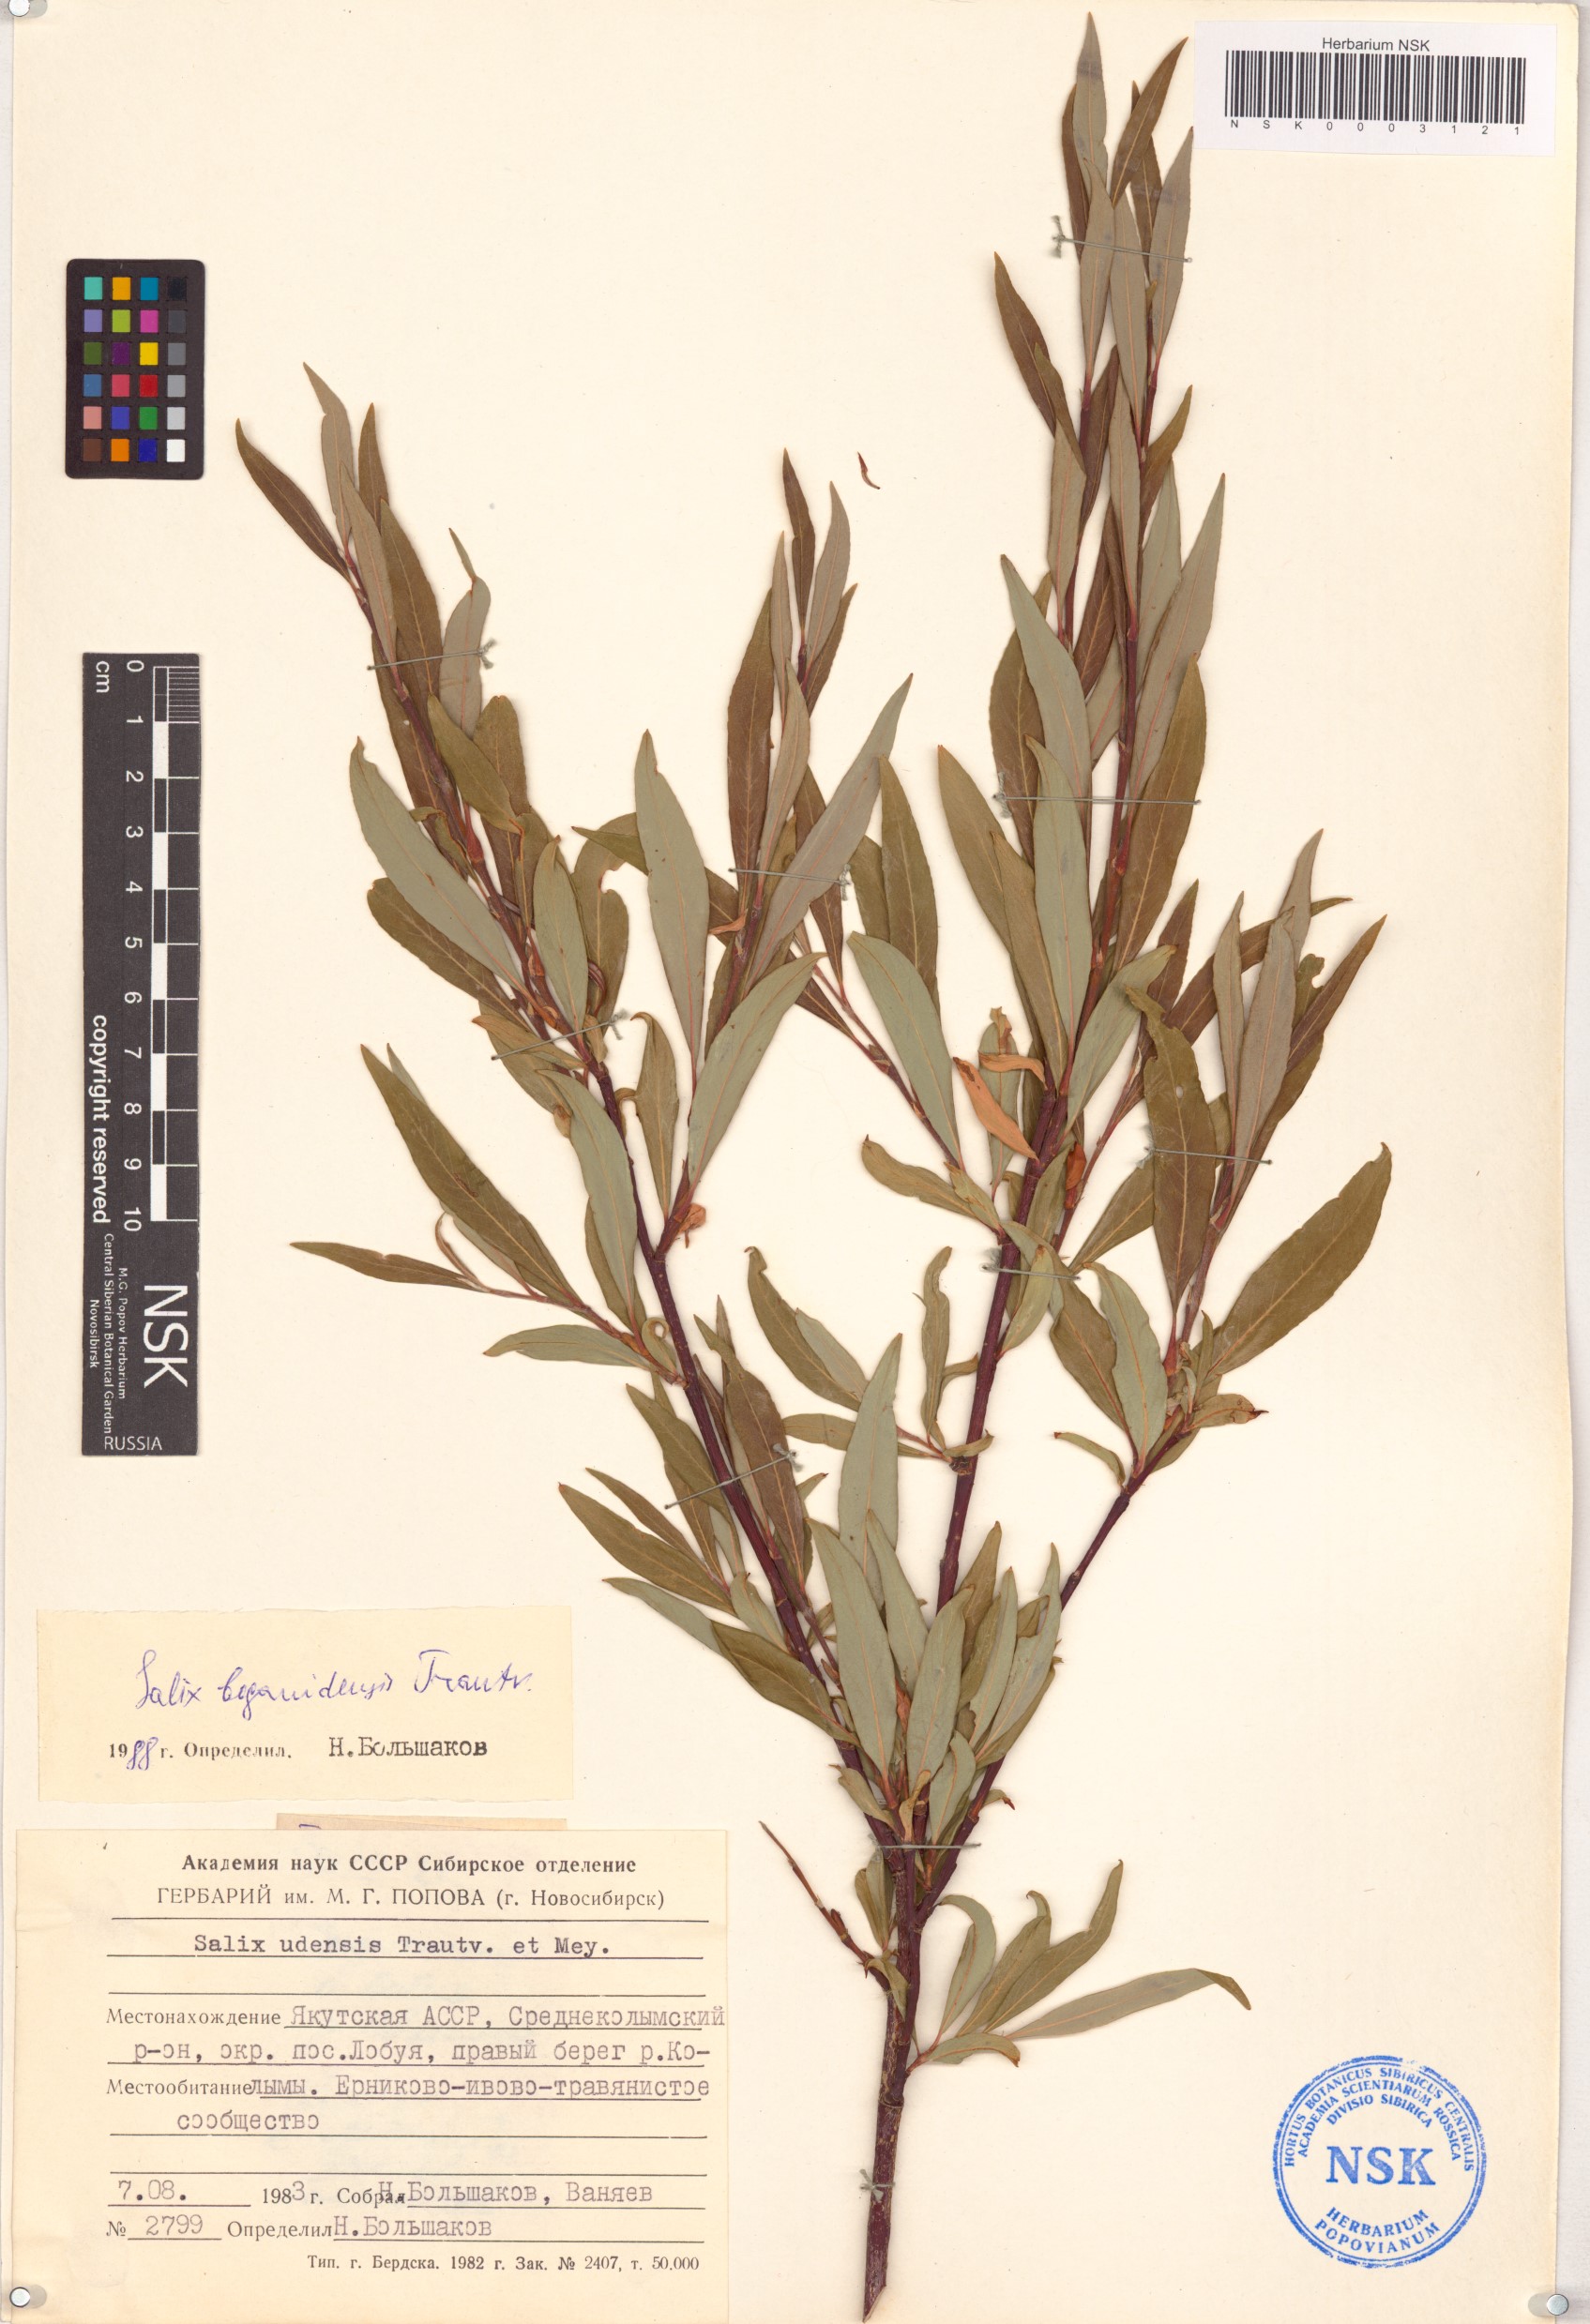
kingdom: Plantae
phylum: Tracheophyta
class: Magnoliopsida
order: Malpighiales
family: Salicaceae
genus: Salix
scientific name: Salix boganidensis
